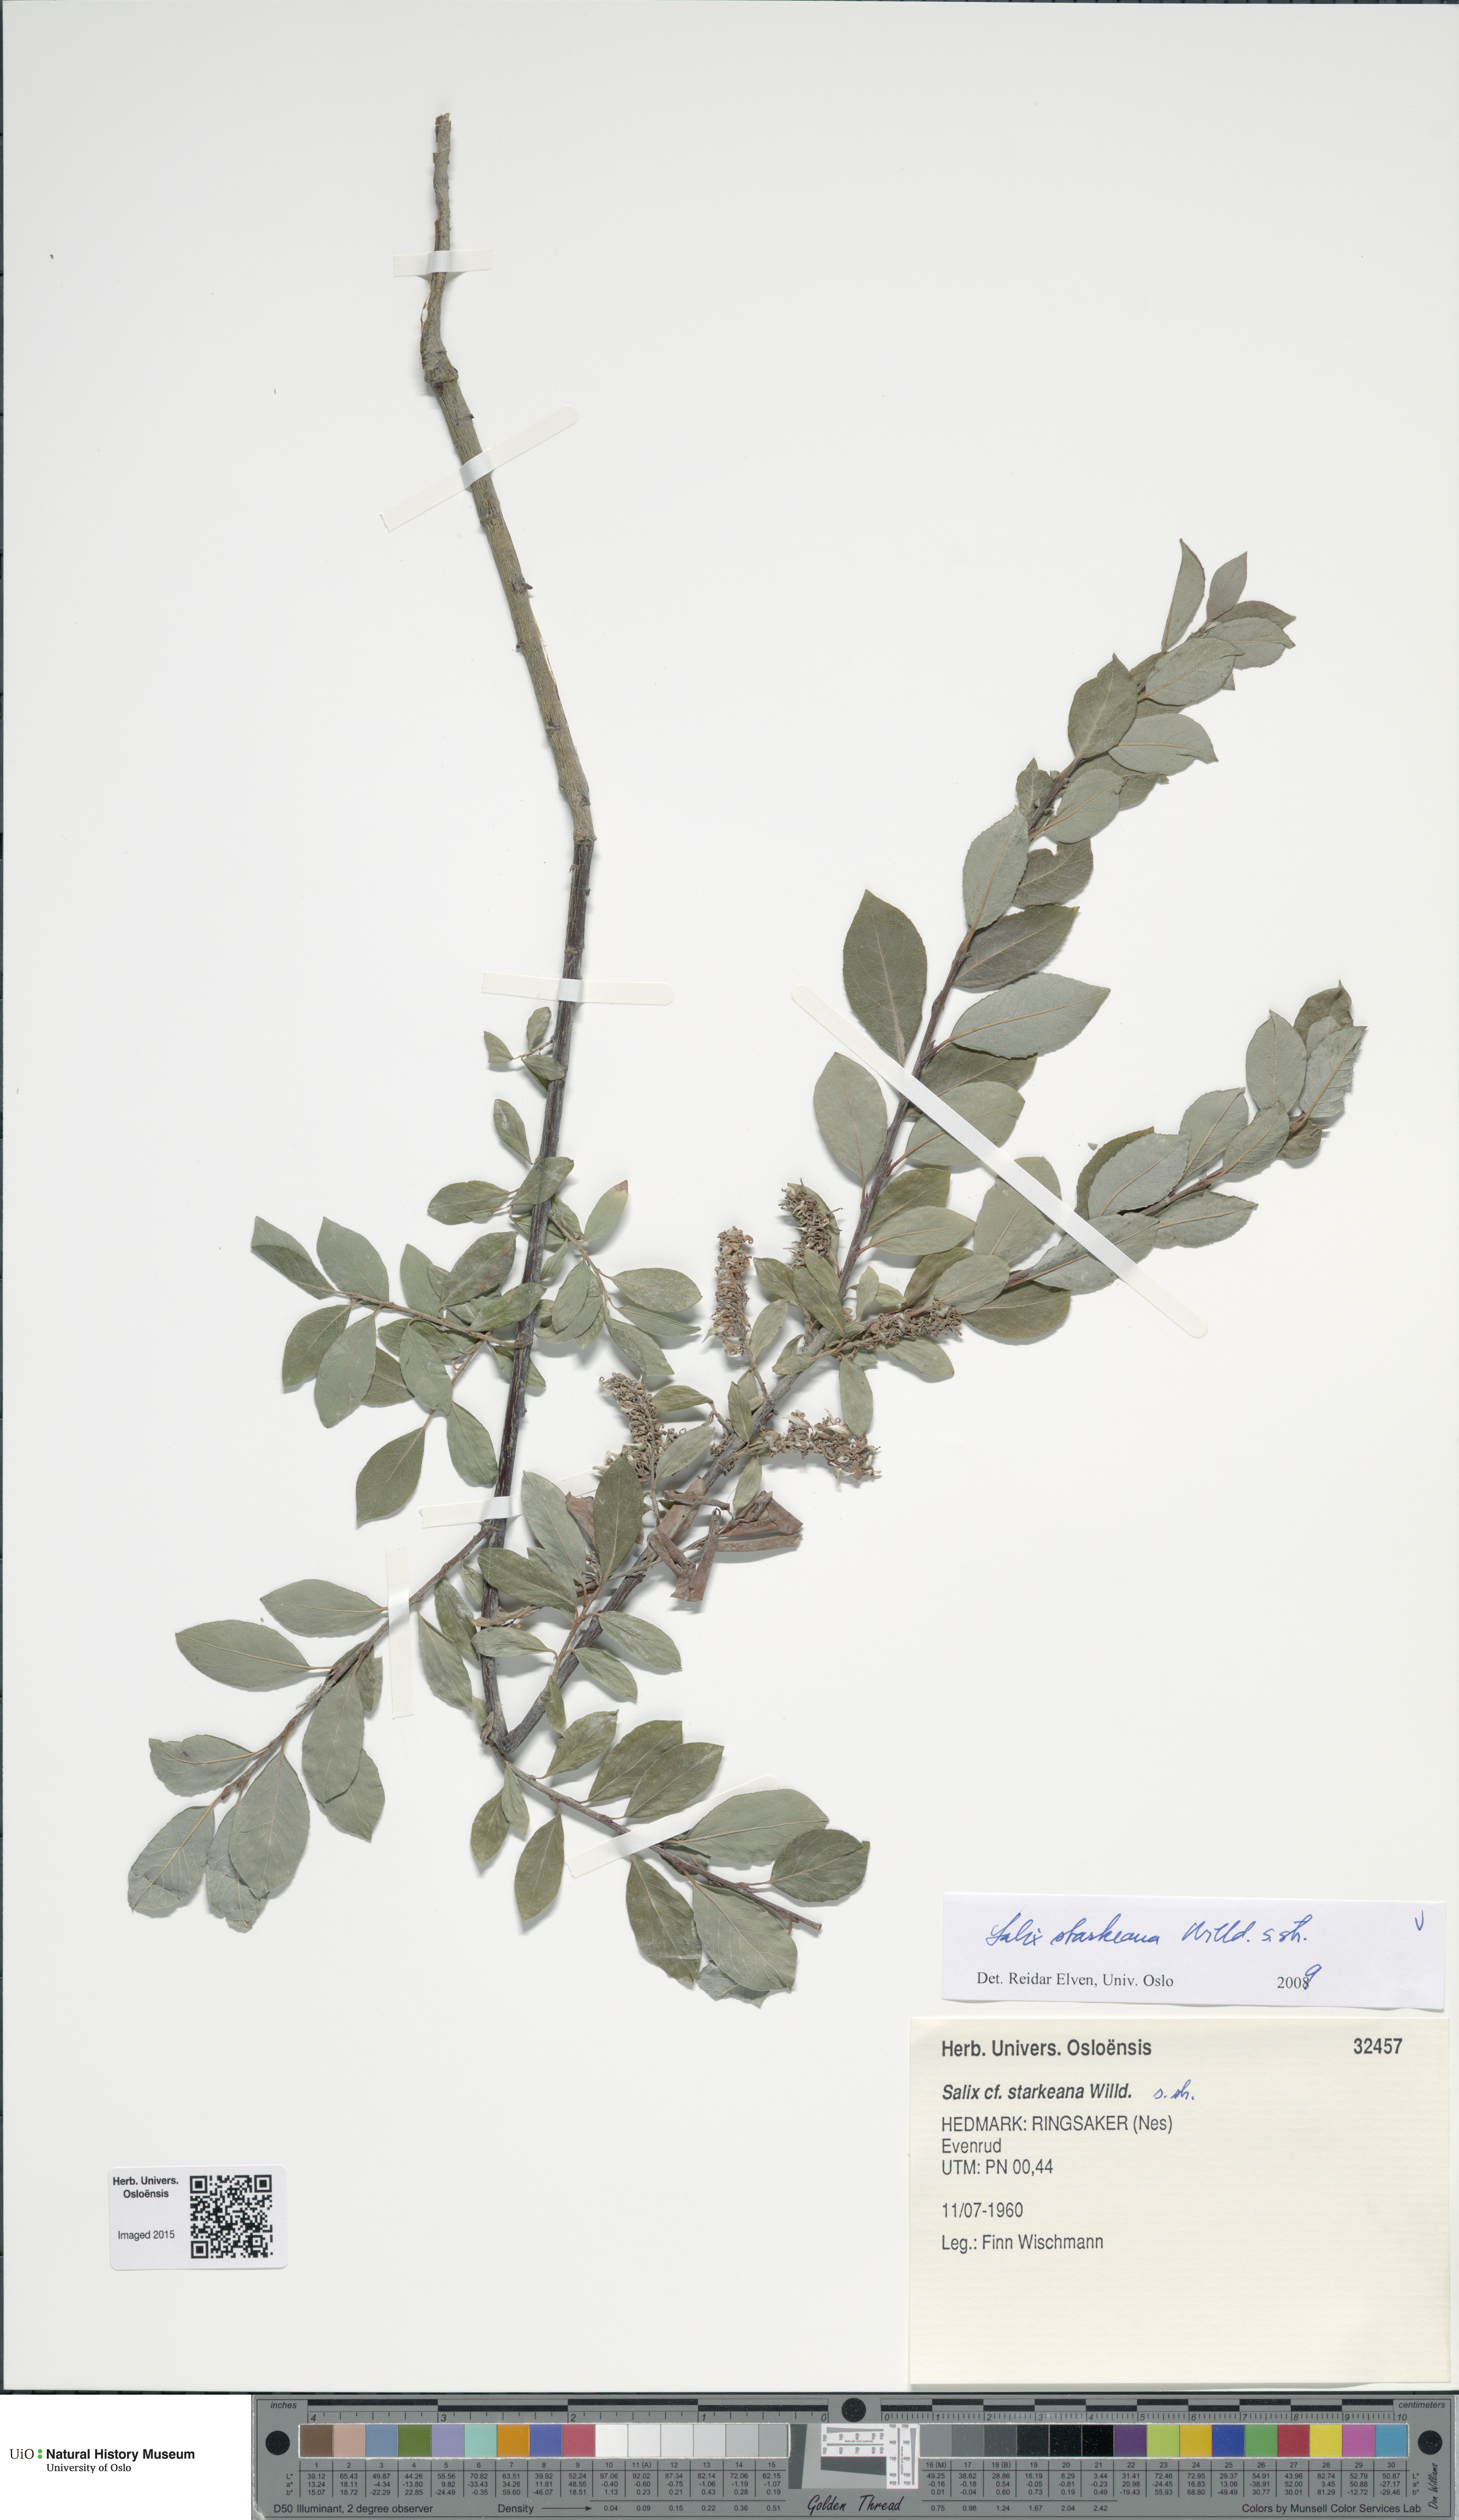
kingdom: Plantae
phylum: Tracheophyta
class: Magnoliopsida
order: Malpighiales
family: Salicaceae
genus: Salix
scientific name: Salix starkeana
